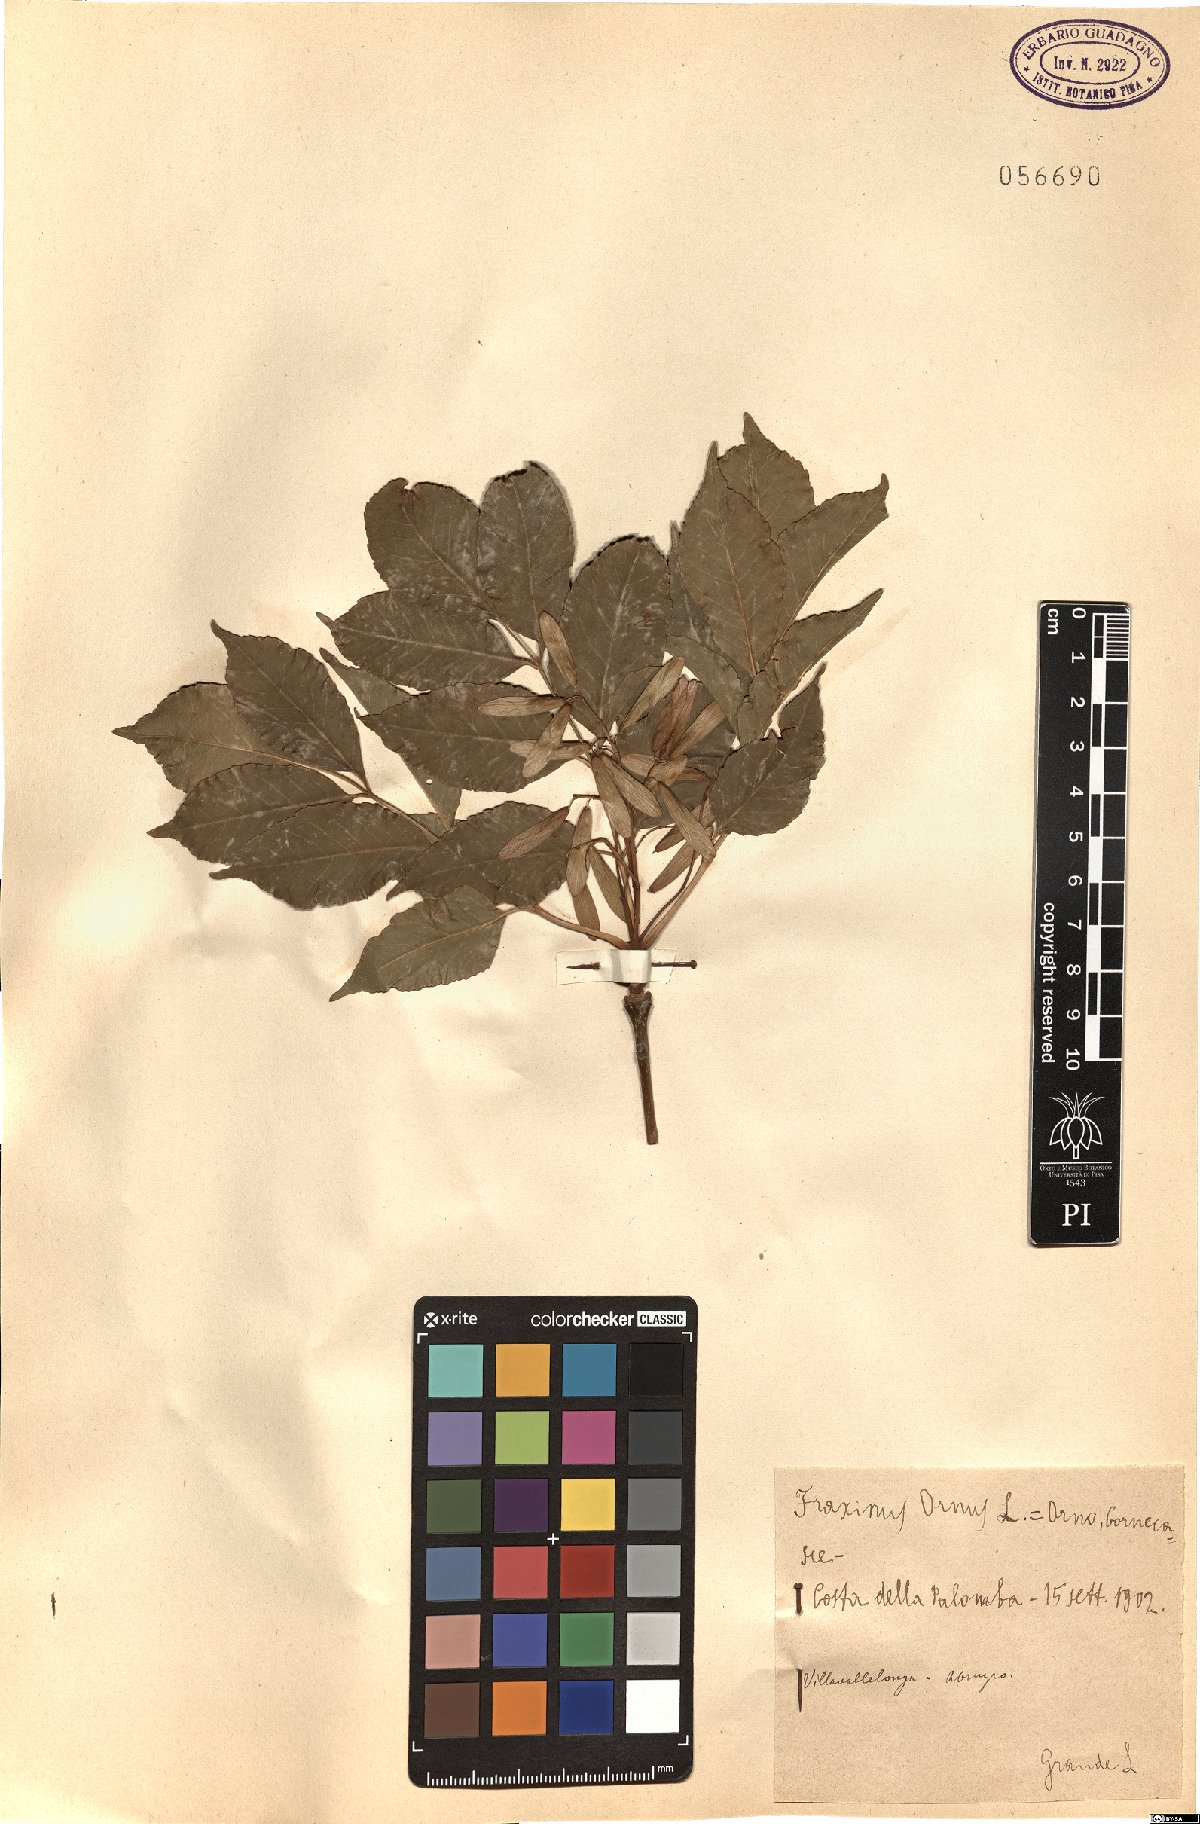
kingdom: Plantae
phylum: Tracheophyta
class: Magnoliopsida
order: Lamiales
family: Oleaceae
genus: Fraxinus
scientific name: Fraxinus ornus
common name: Manna ash
